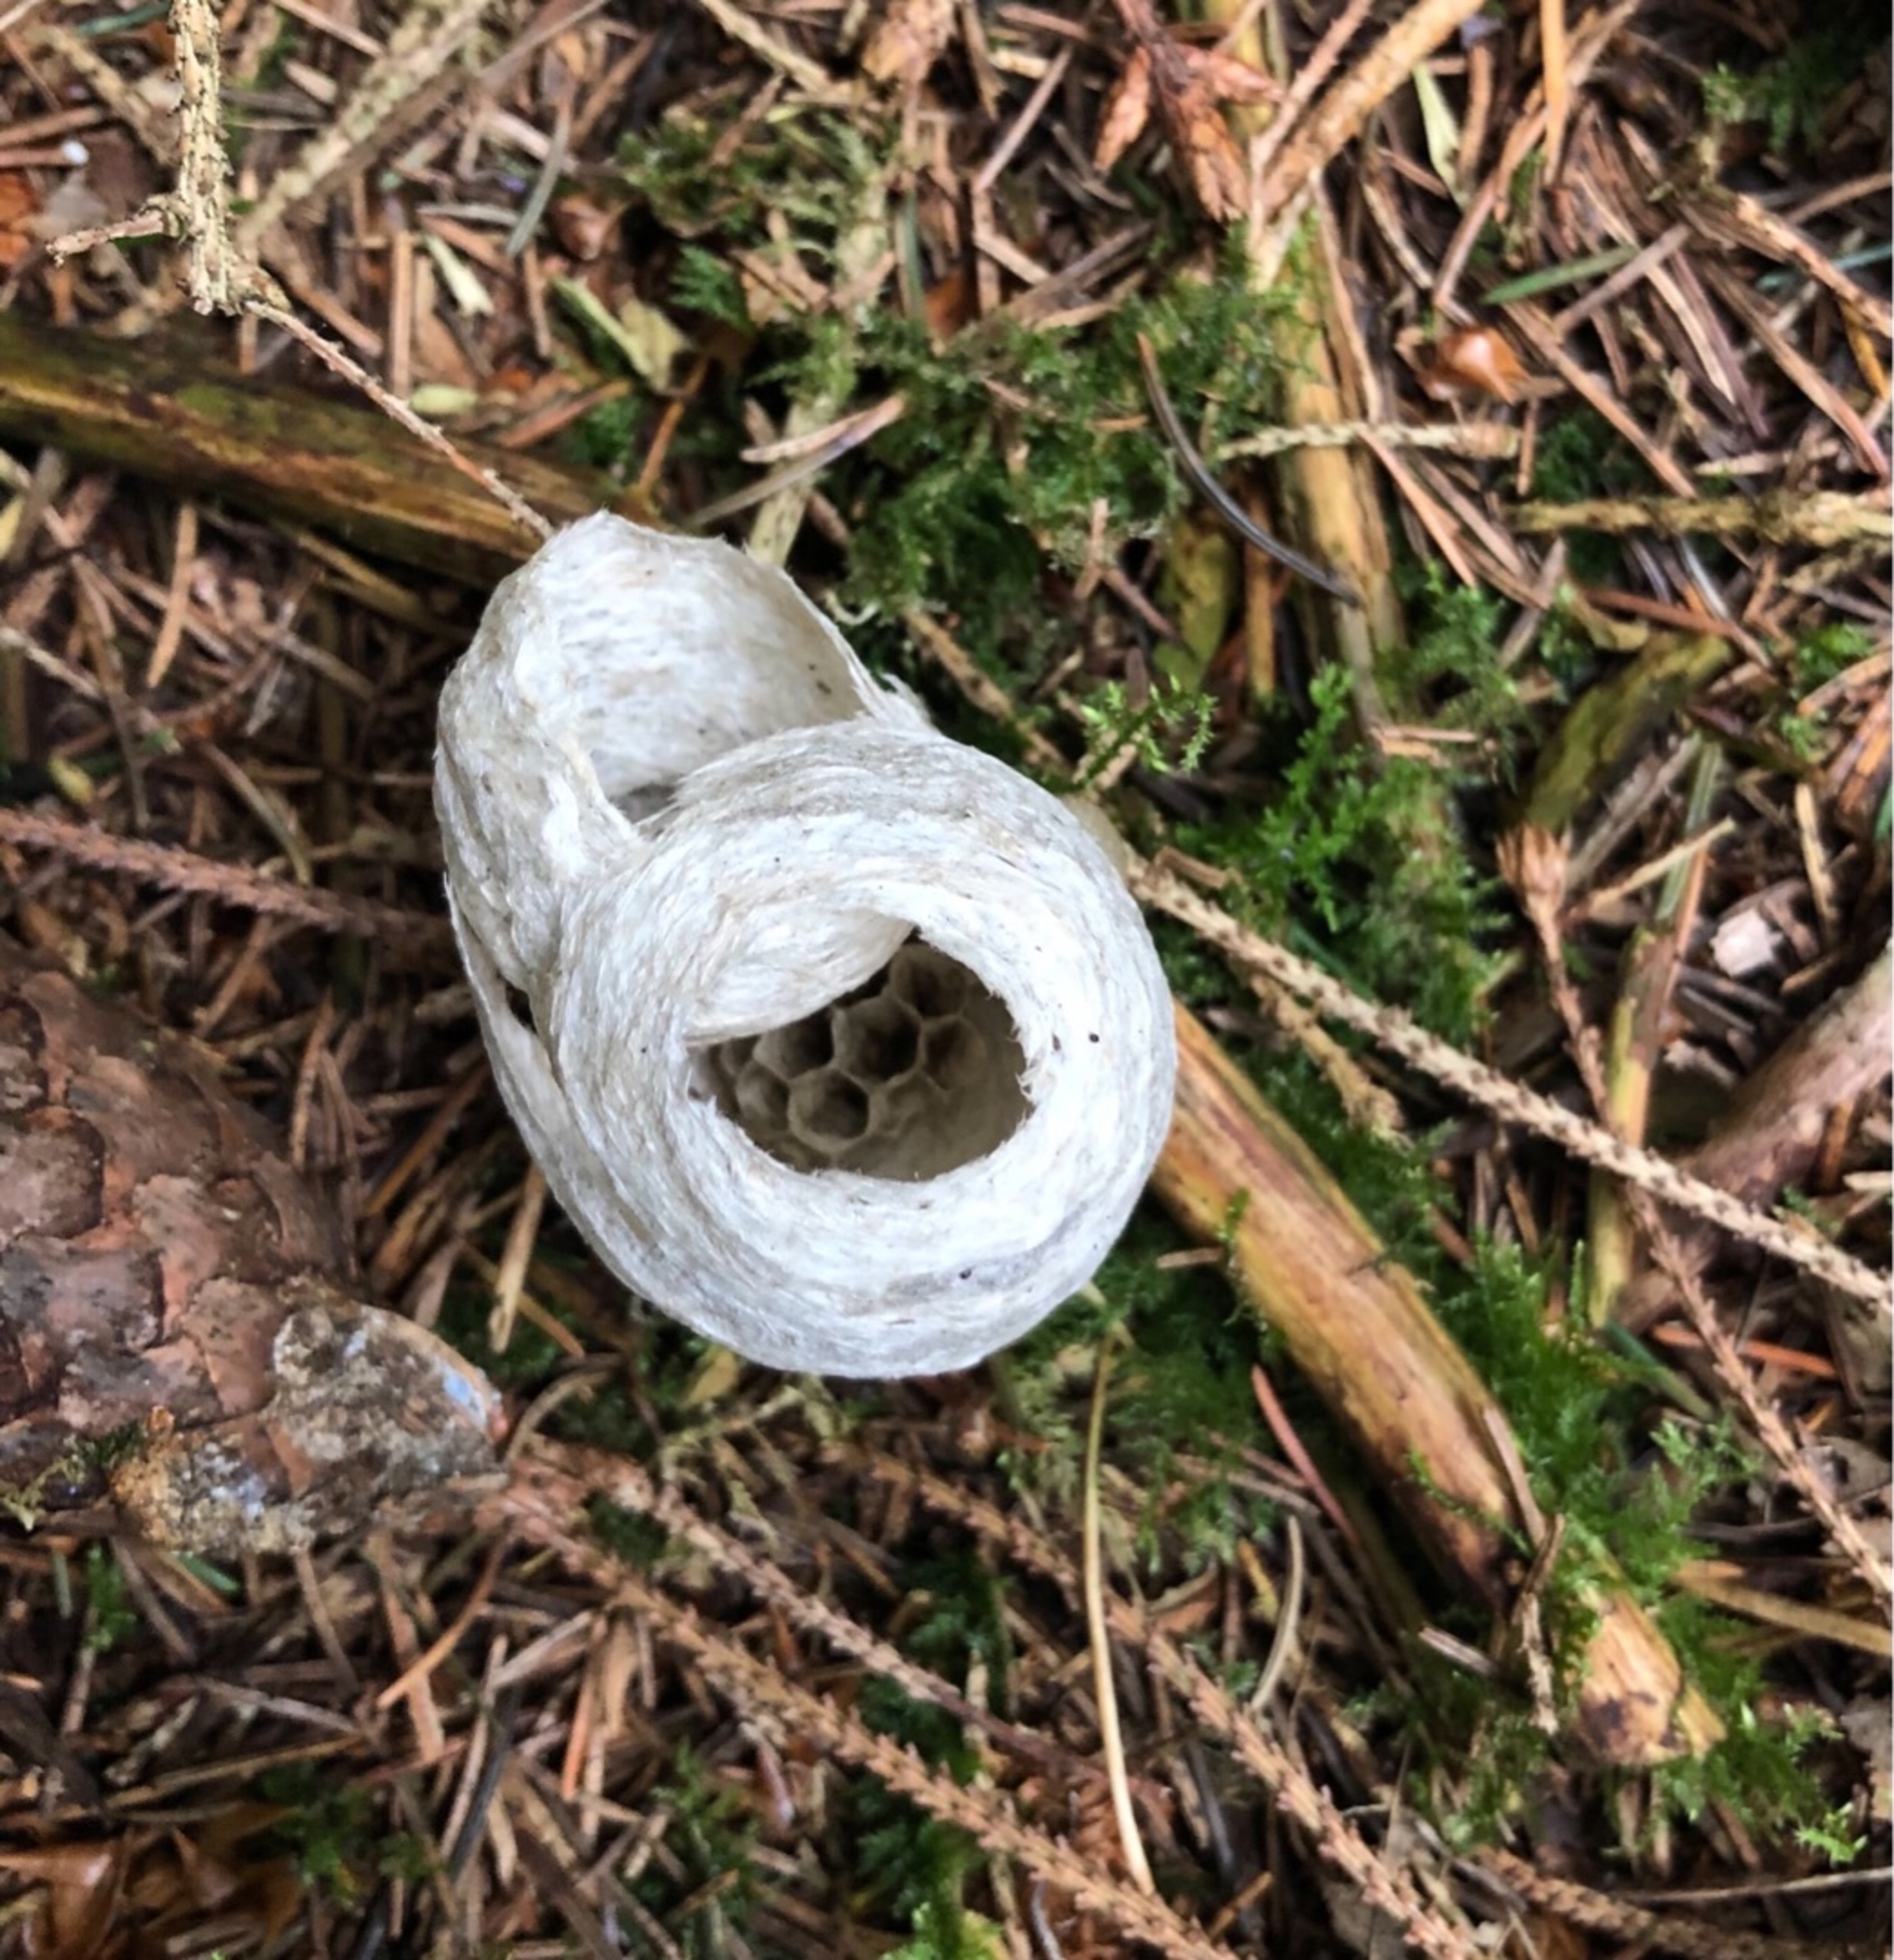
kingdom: Animalia
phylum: Arthropoda
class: Insecta
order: Hymenoptera
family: Vespidae
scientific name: Vespidae
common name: Gedehamse
